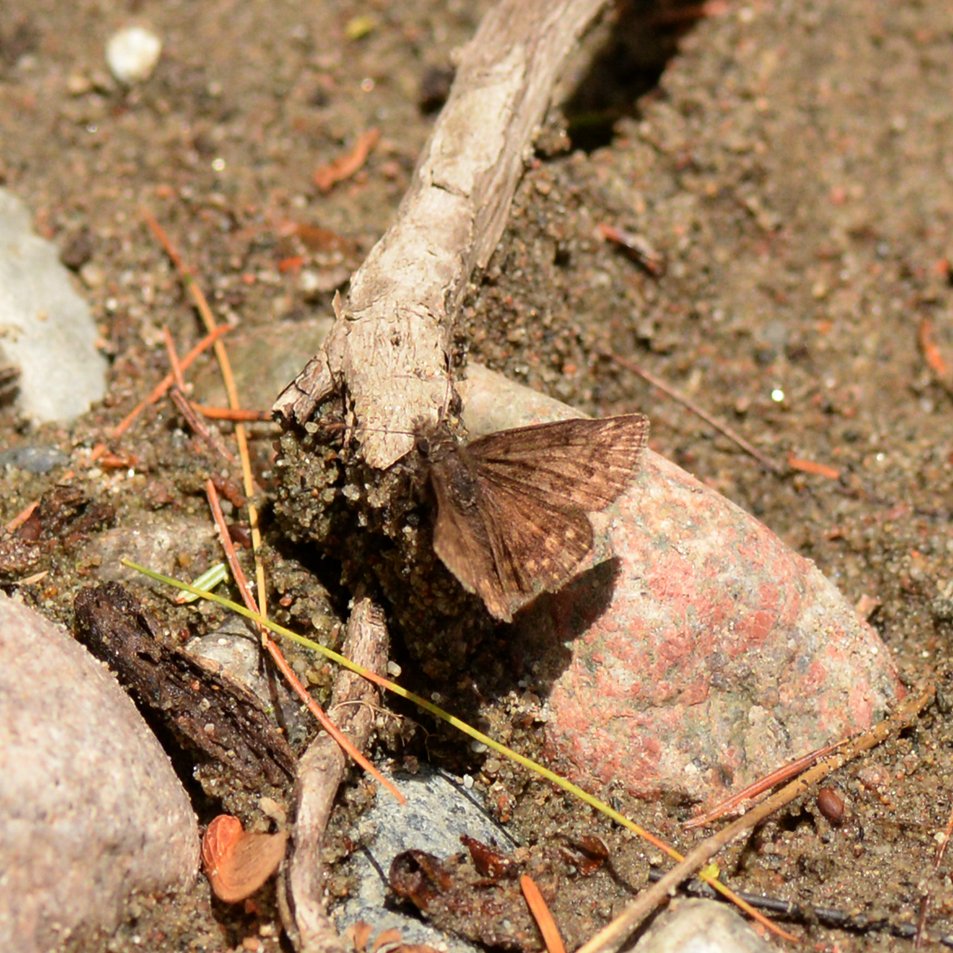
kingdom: Animalia
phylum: Arthropoda
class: Insecta
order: Lepidoptera
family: Hesperiidae
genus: Erynnis
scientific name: Erynnis
